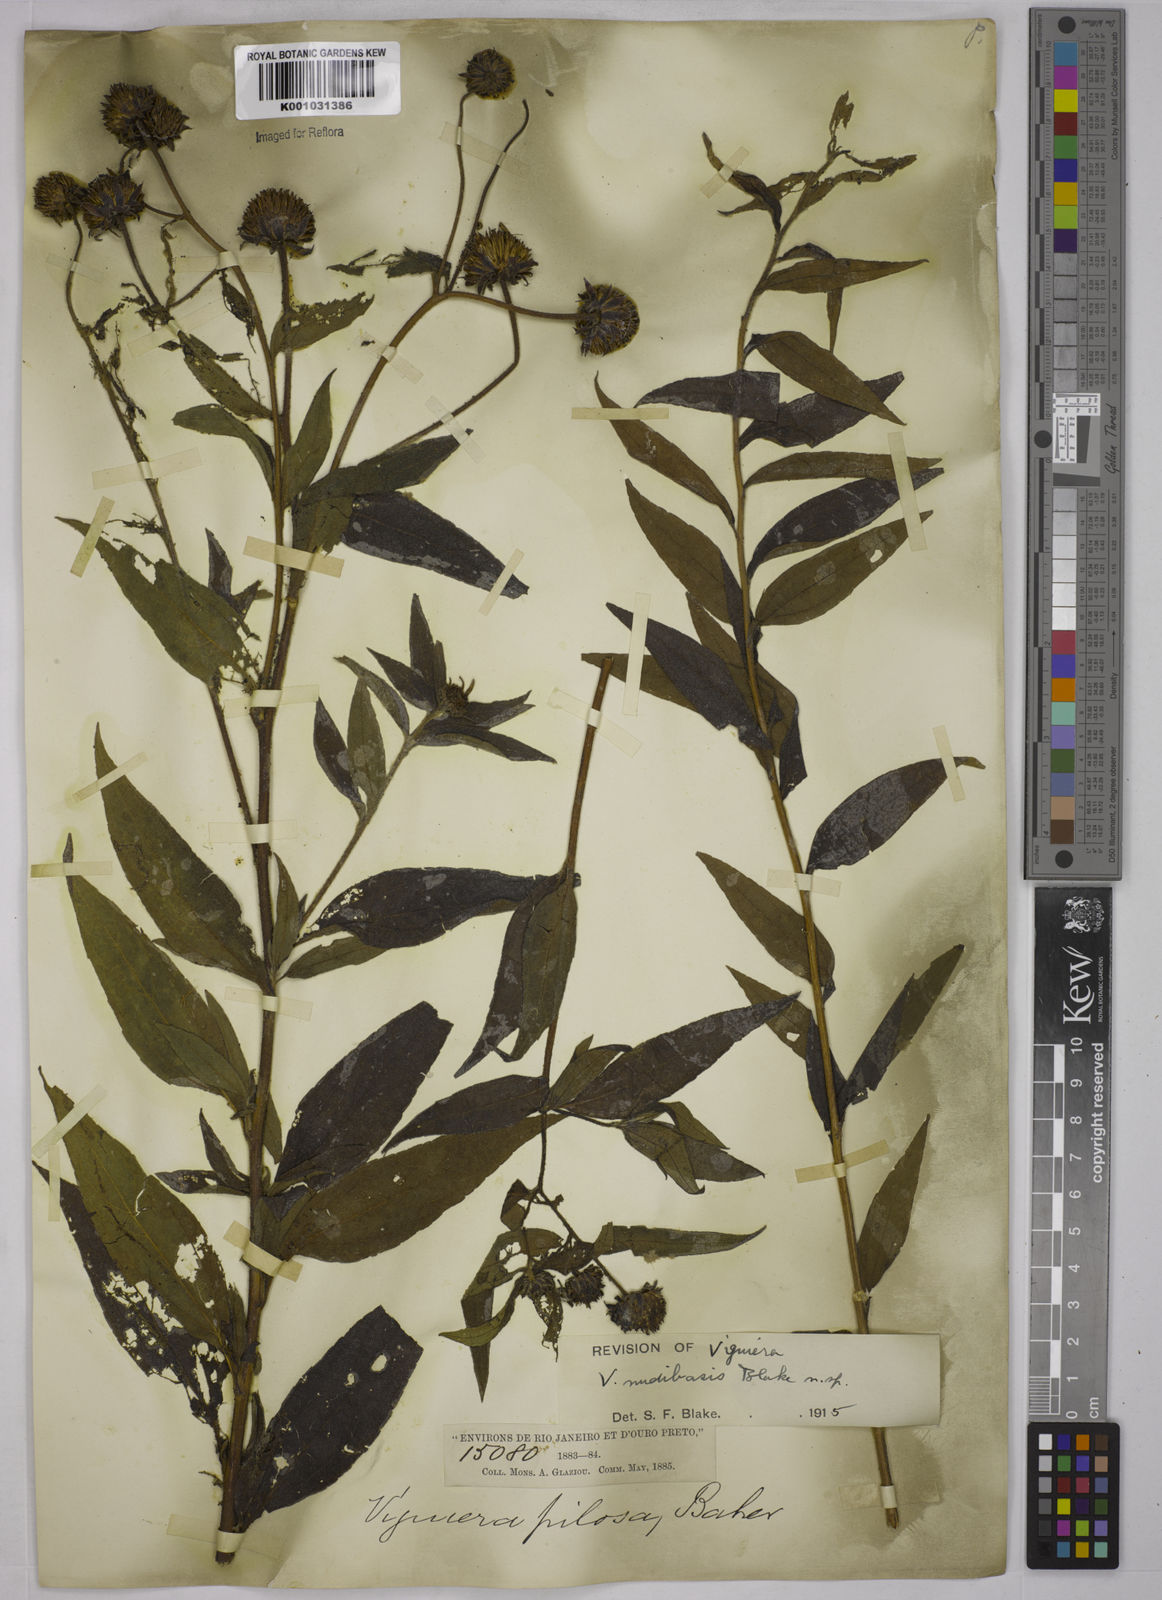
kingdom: Plantae
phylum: Tracheophyta
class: Magnoliopsida
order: Asterales
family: Asteraceae
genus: Aldama
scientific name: Aldama nudibasilaris
